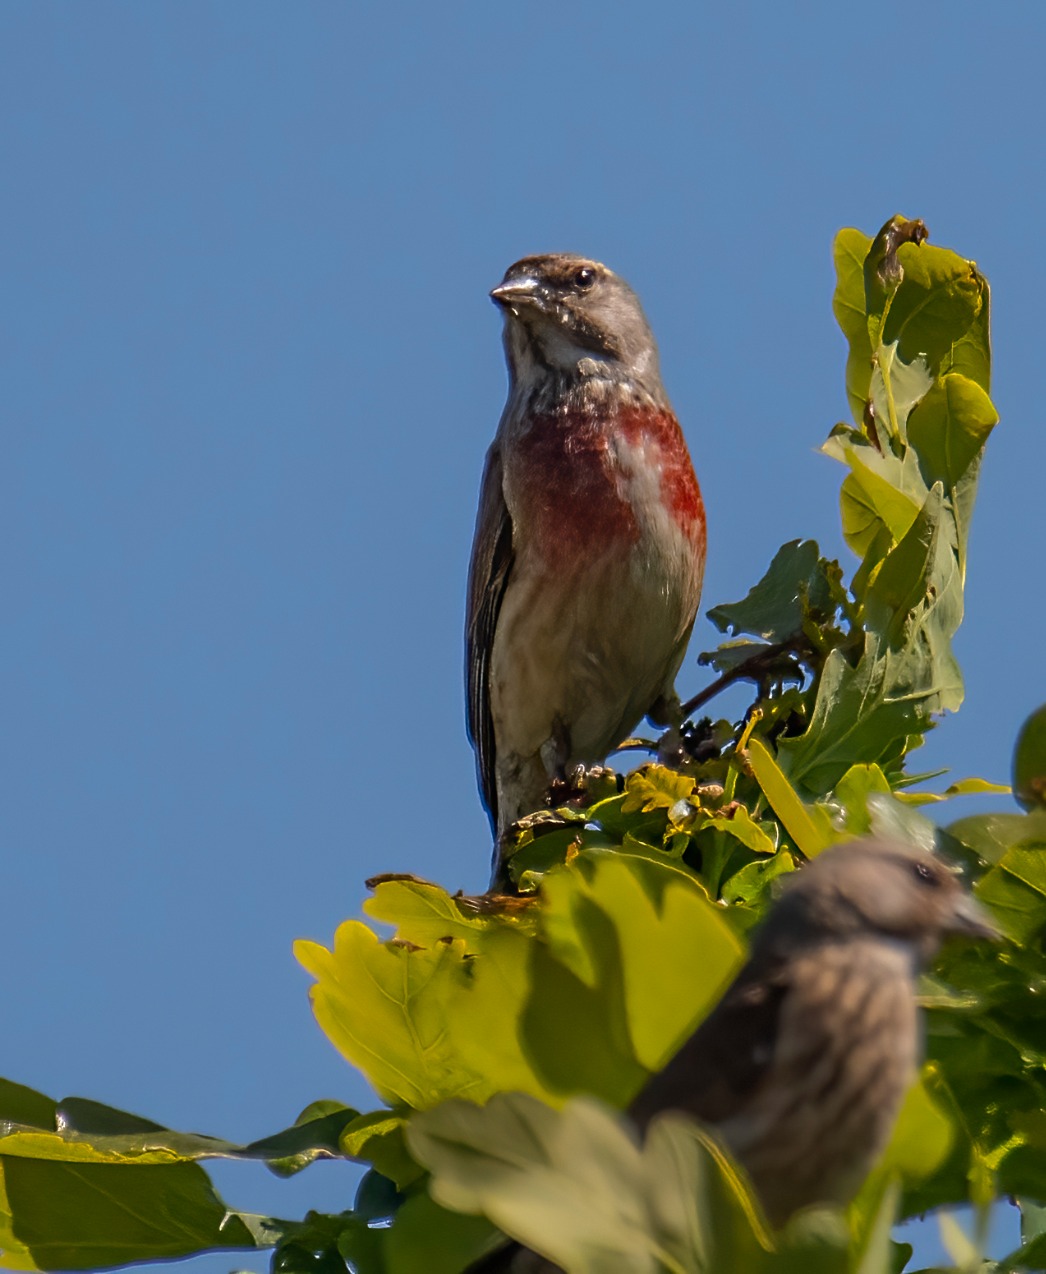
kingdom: Animalia
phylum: Chordata
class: Aves
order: Passeriformes
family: Fringillidae
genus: Linaria
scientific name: Linaria cannabina
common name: Tornirisk
